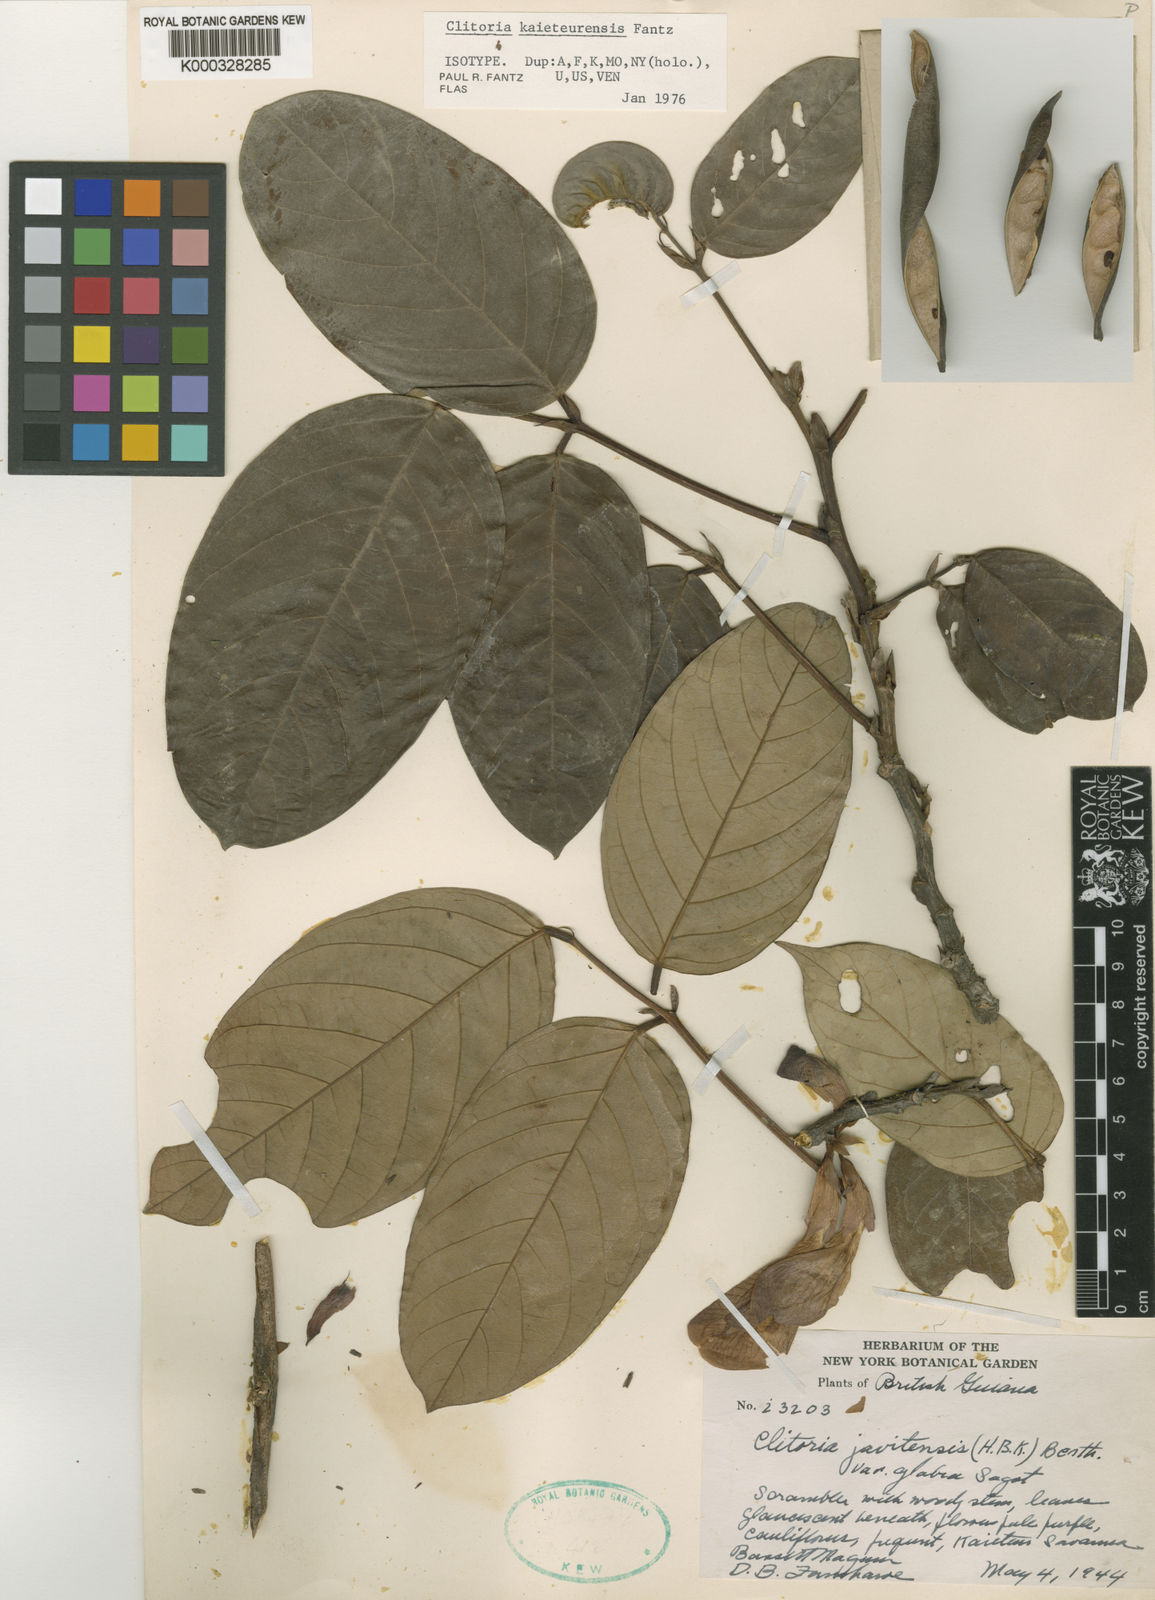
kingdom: Plantae
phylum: Tracheophyta
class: Magnoliopsida
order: Fabales
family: Fabaceae
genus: Clitoria
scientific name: Clitoria kaieteurensis
